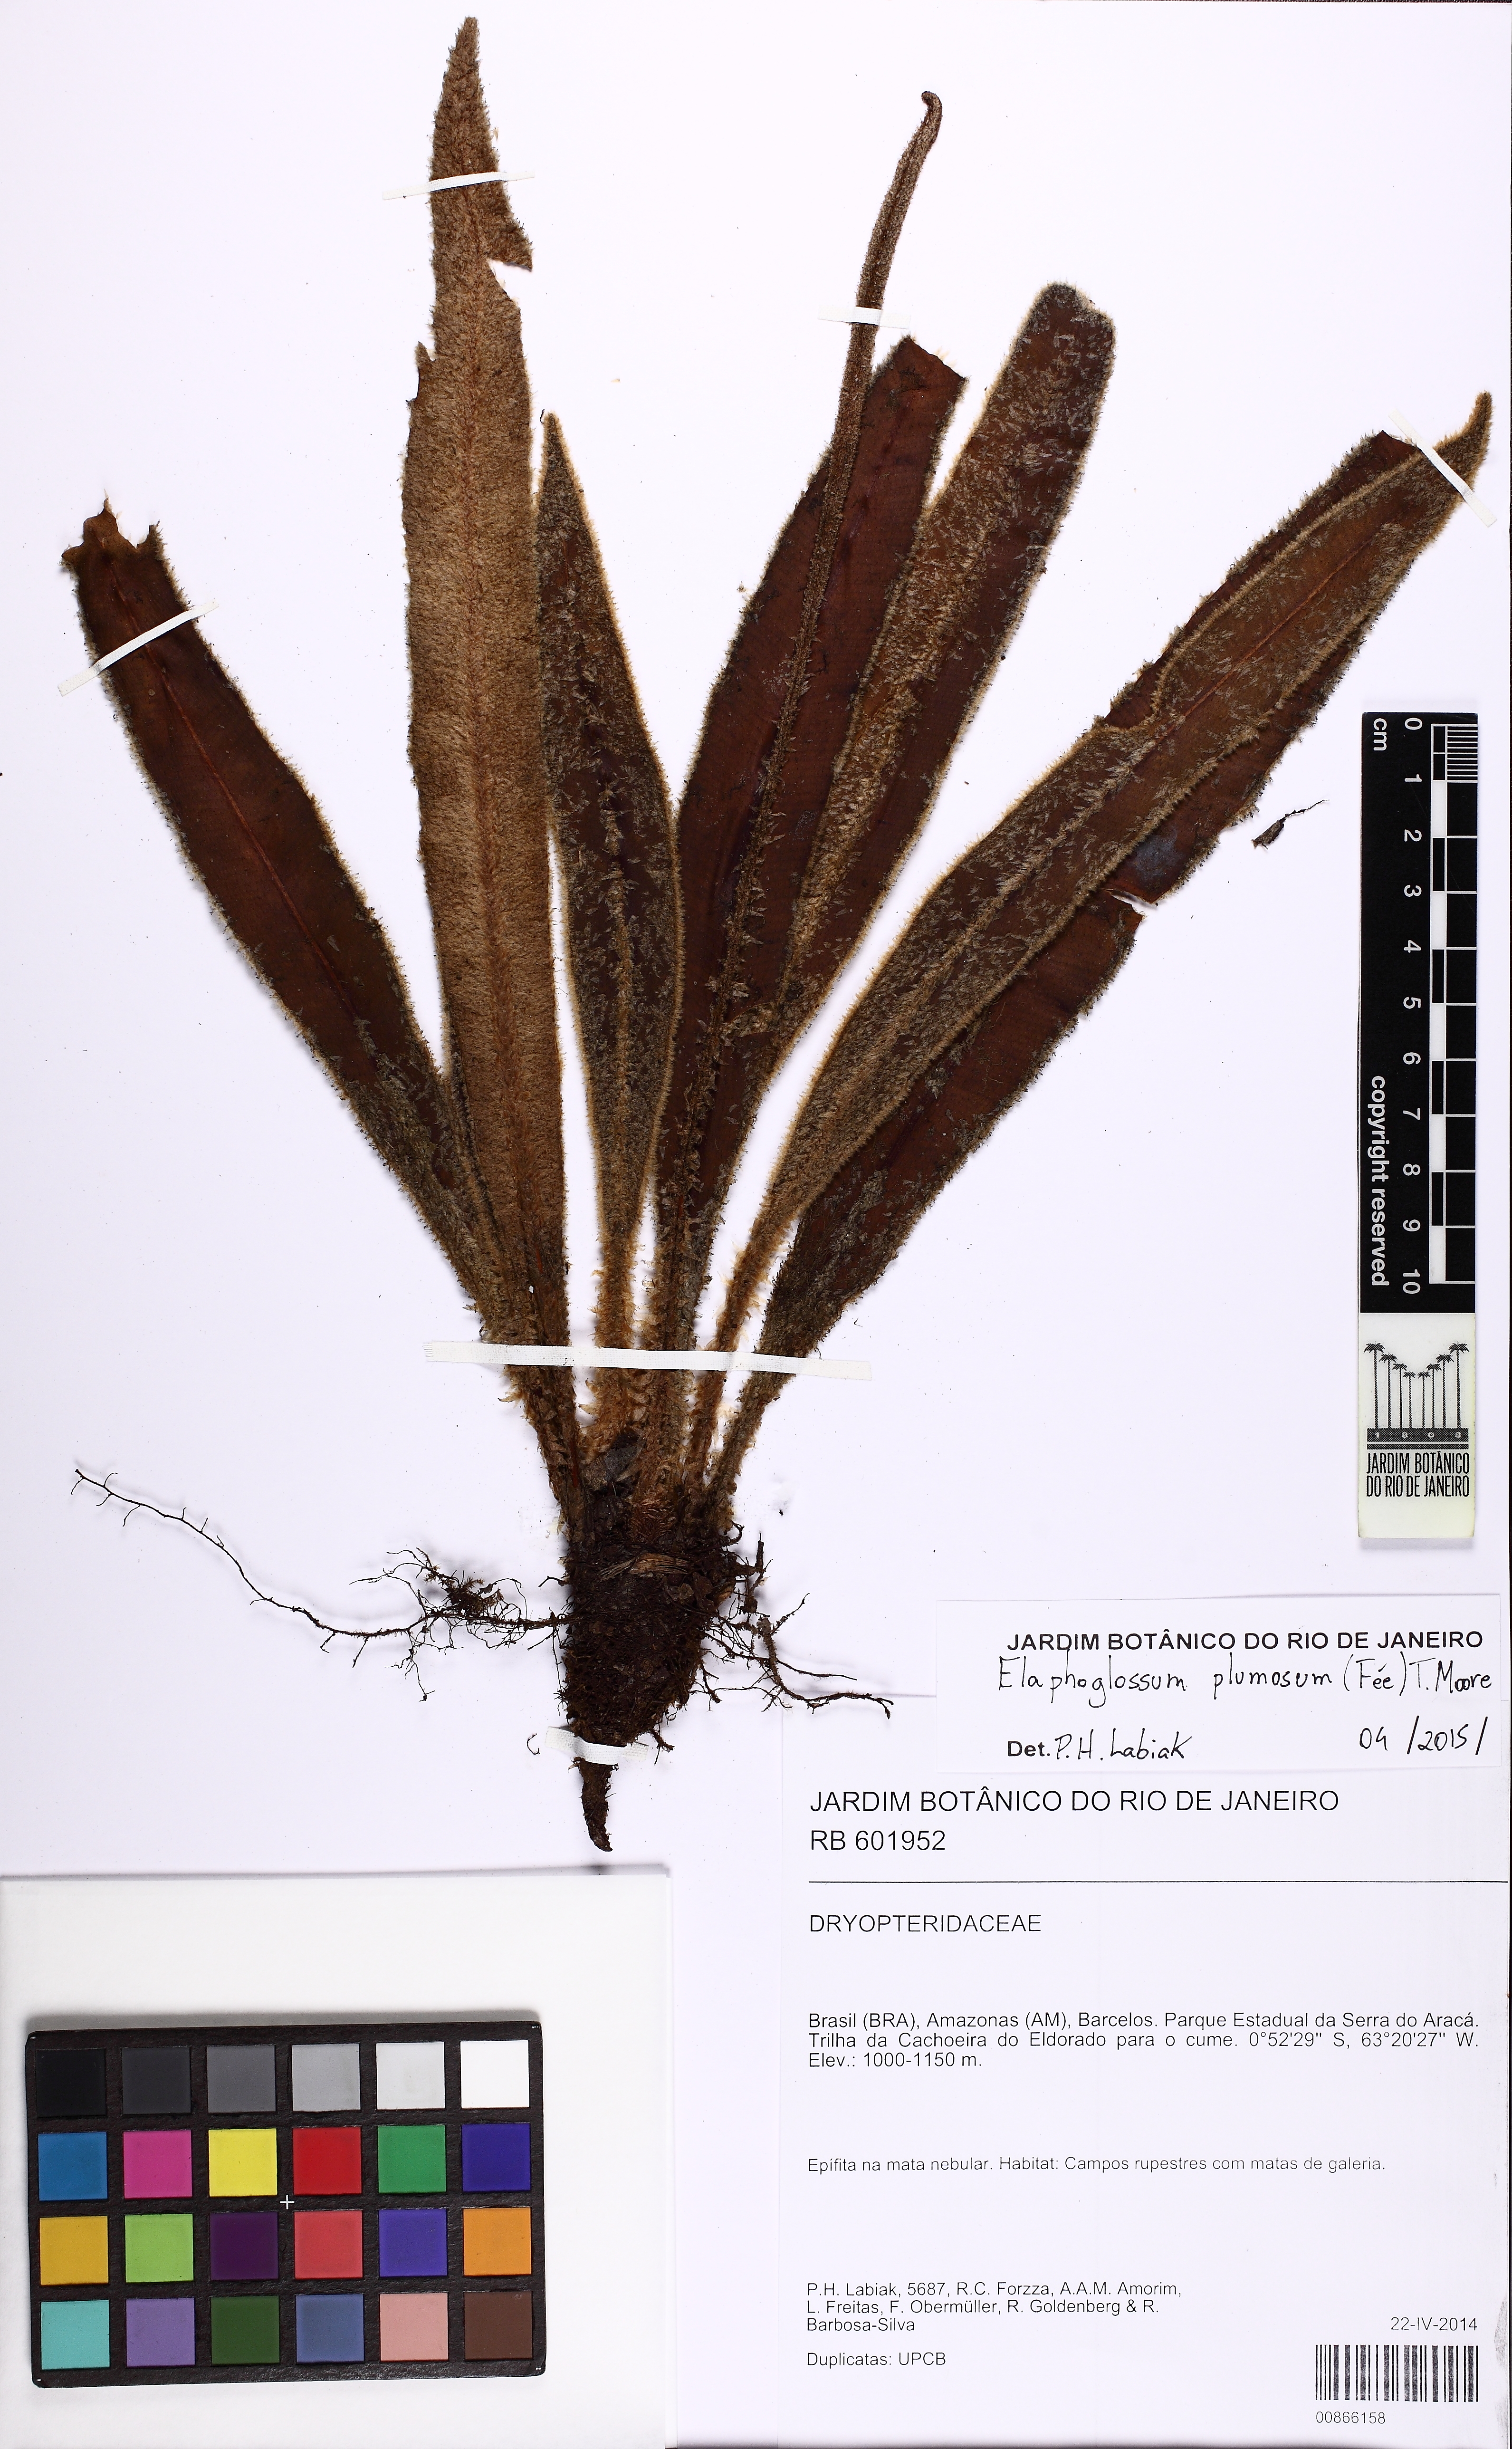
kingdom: Plantae
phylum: Tracheophyta
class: Polypodiopsida
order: Polypodiales
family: Dryopteridaceae
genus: Elaphoglossum
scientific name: Elaphoglossum plumosum
